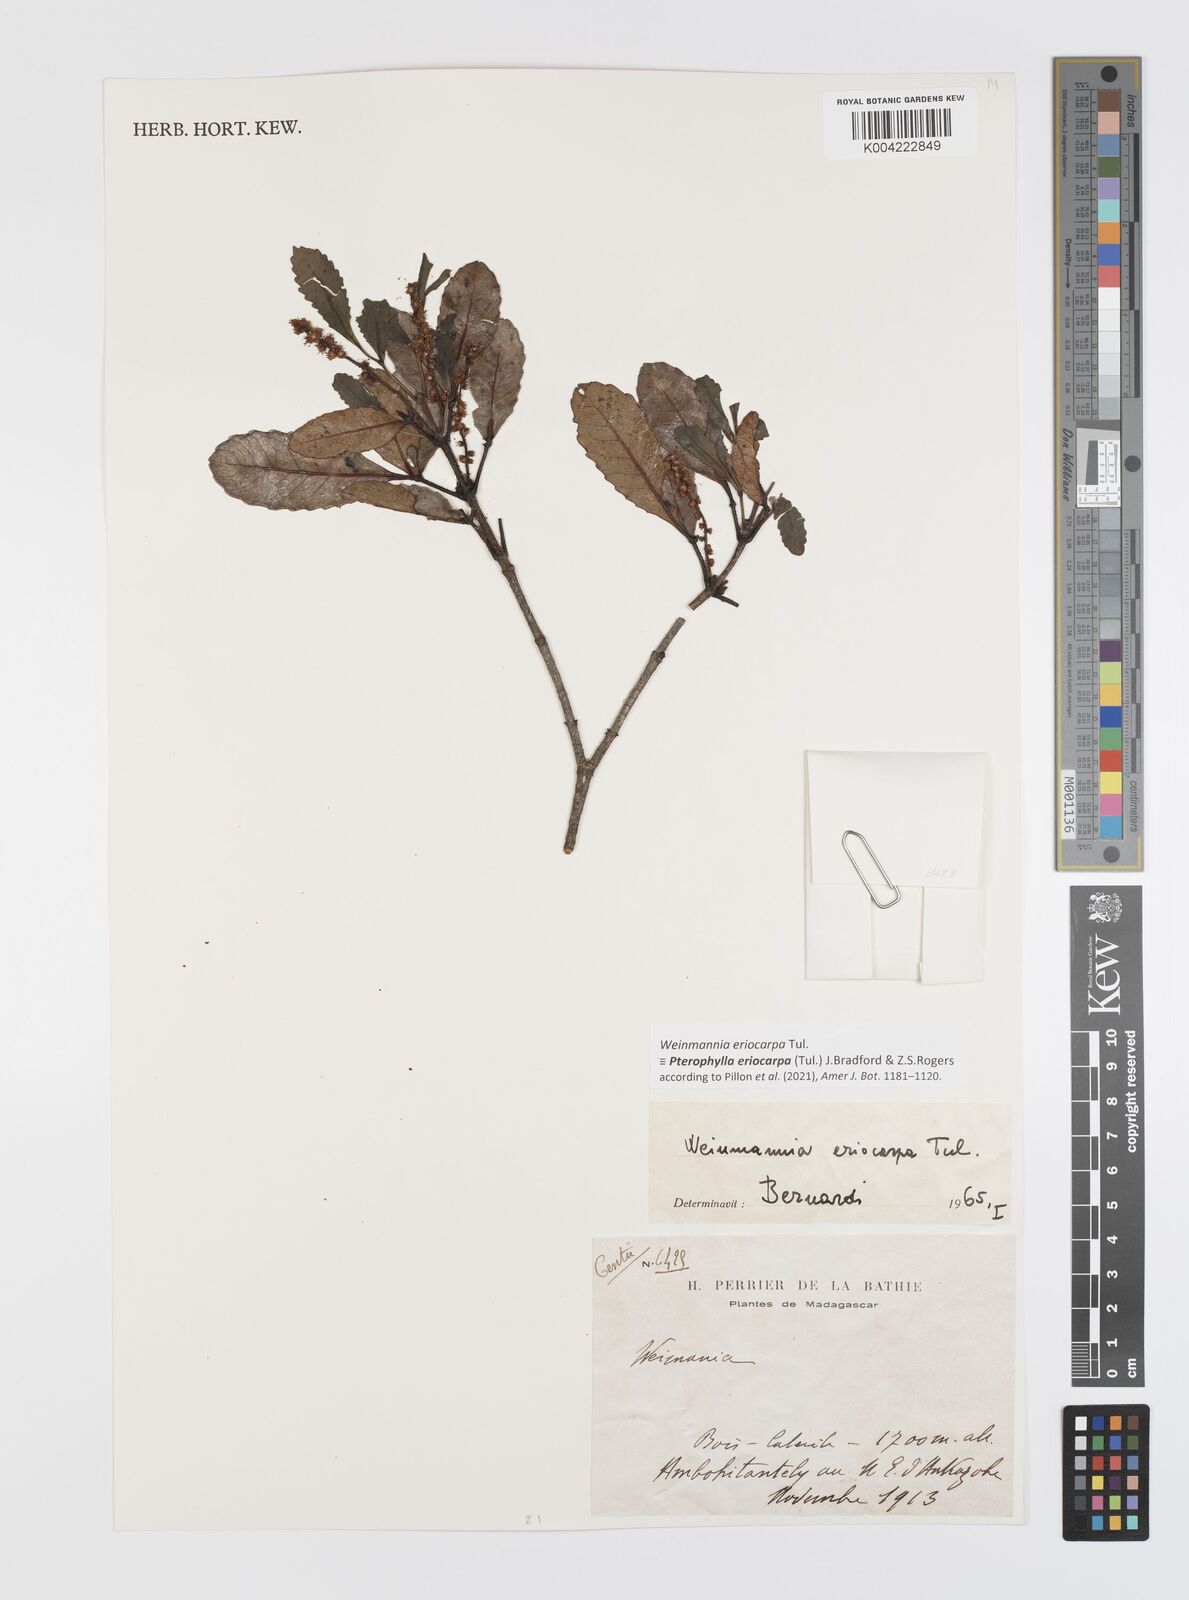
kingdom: Plantae
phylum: Tracheophyta
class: Magnoliopsida
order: Oxalidales
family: Cunoniaceae
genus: Pterophylla
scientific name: Pterophylla eriocarpa
